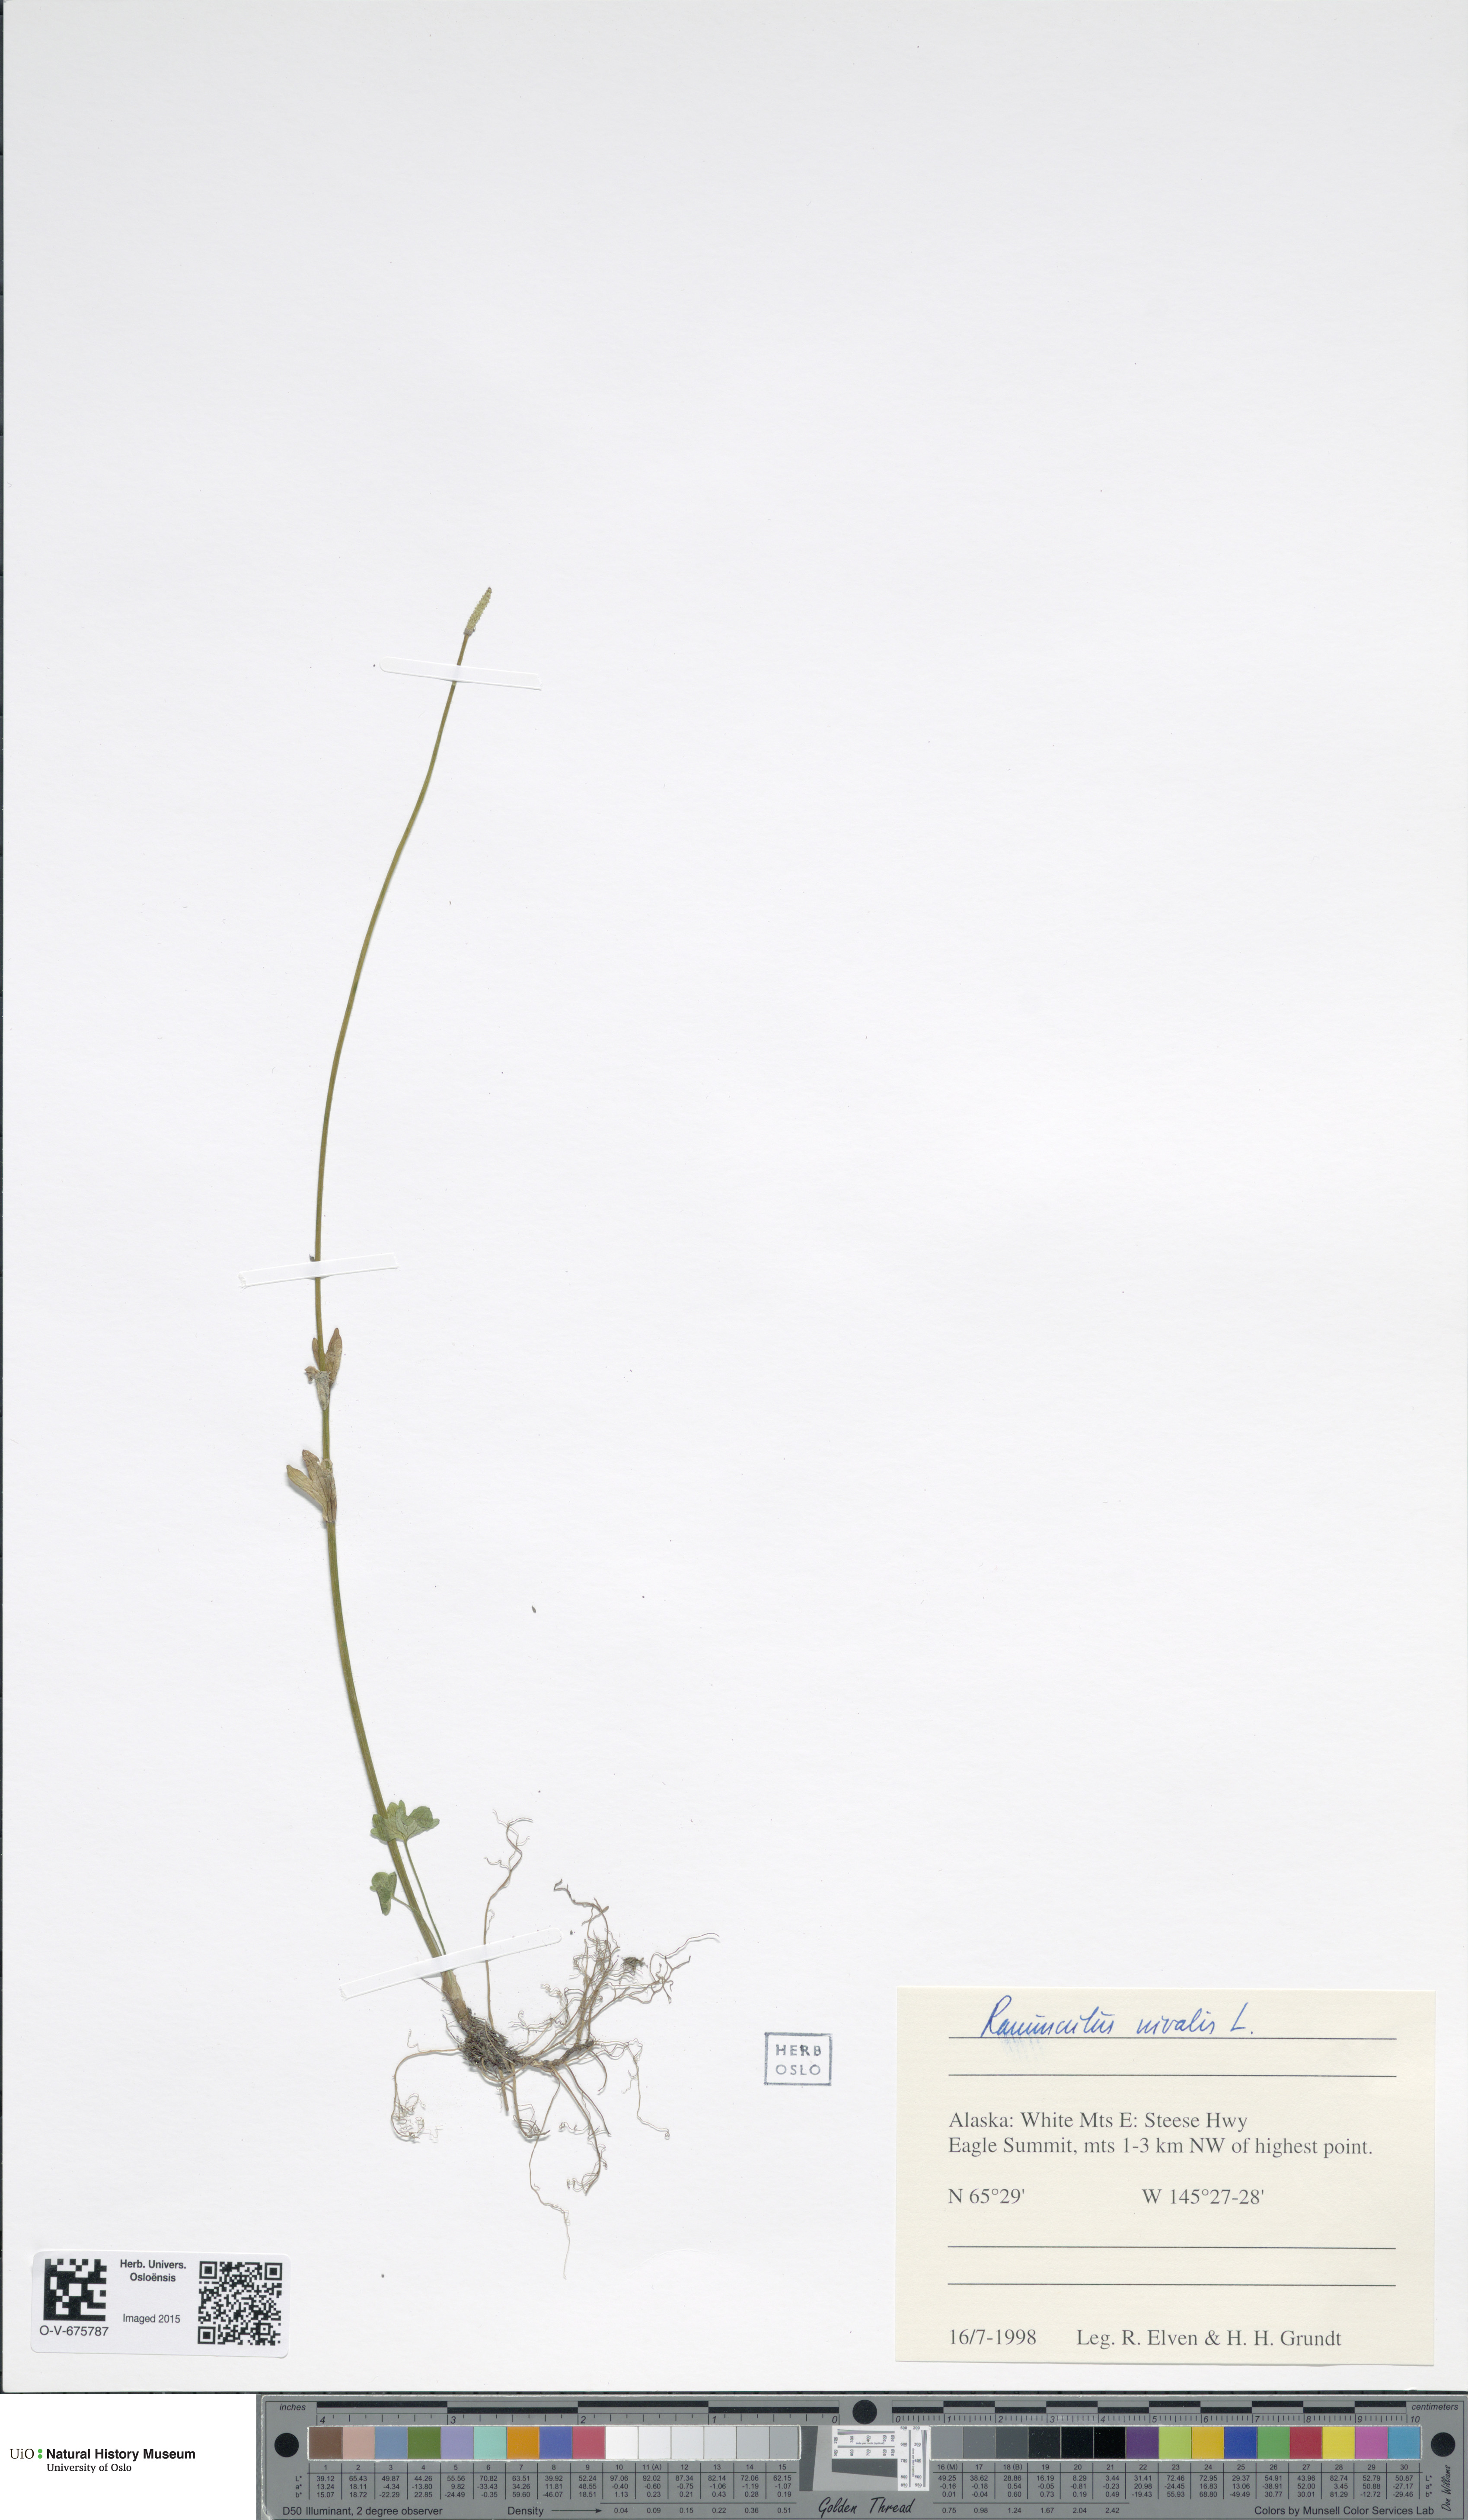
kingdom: Plantae
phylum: Tracheophyta
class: Magnoliopsida
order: Ranunculales
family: Ranunculaceae
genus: Ranunculus
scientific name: Ranunculus nivalis
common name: Snow buttercup
